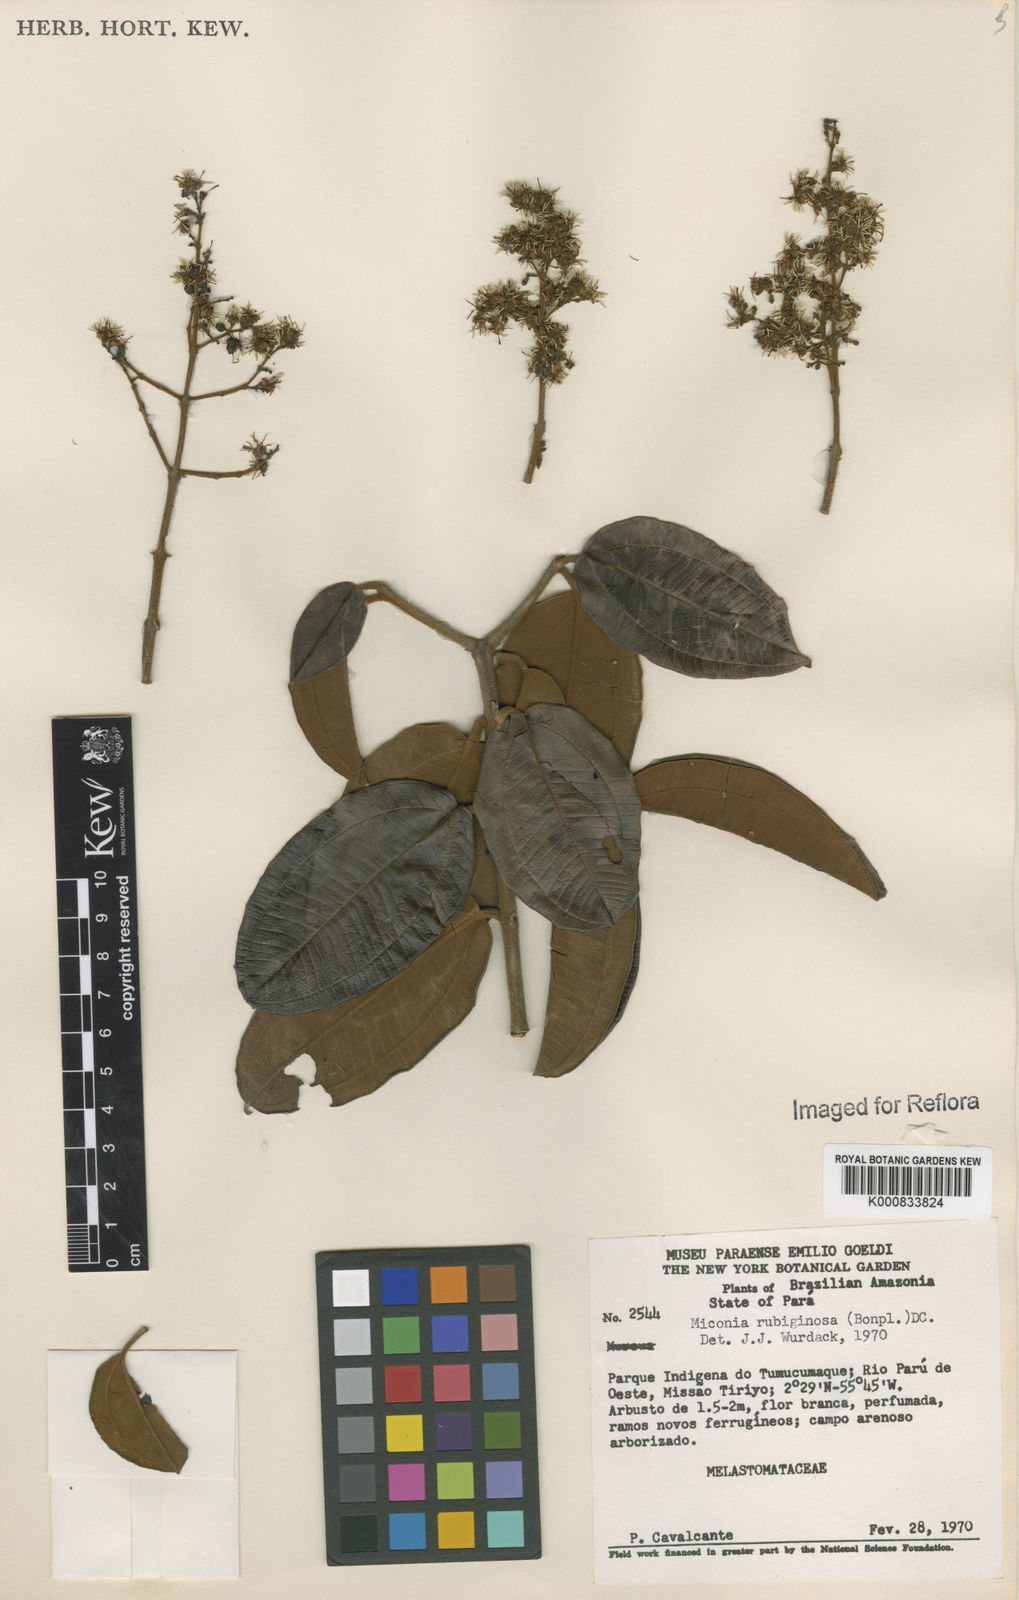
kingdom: Plantae
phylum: Tracheophyta
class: Magnoliopsida
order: Myrtales
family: Melastomataceae
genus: Miconia
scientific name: Miconia rubiginosa
